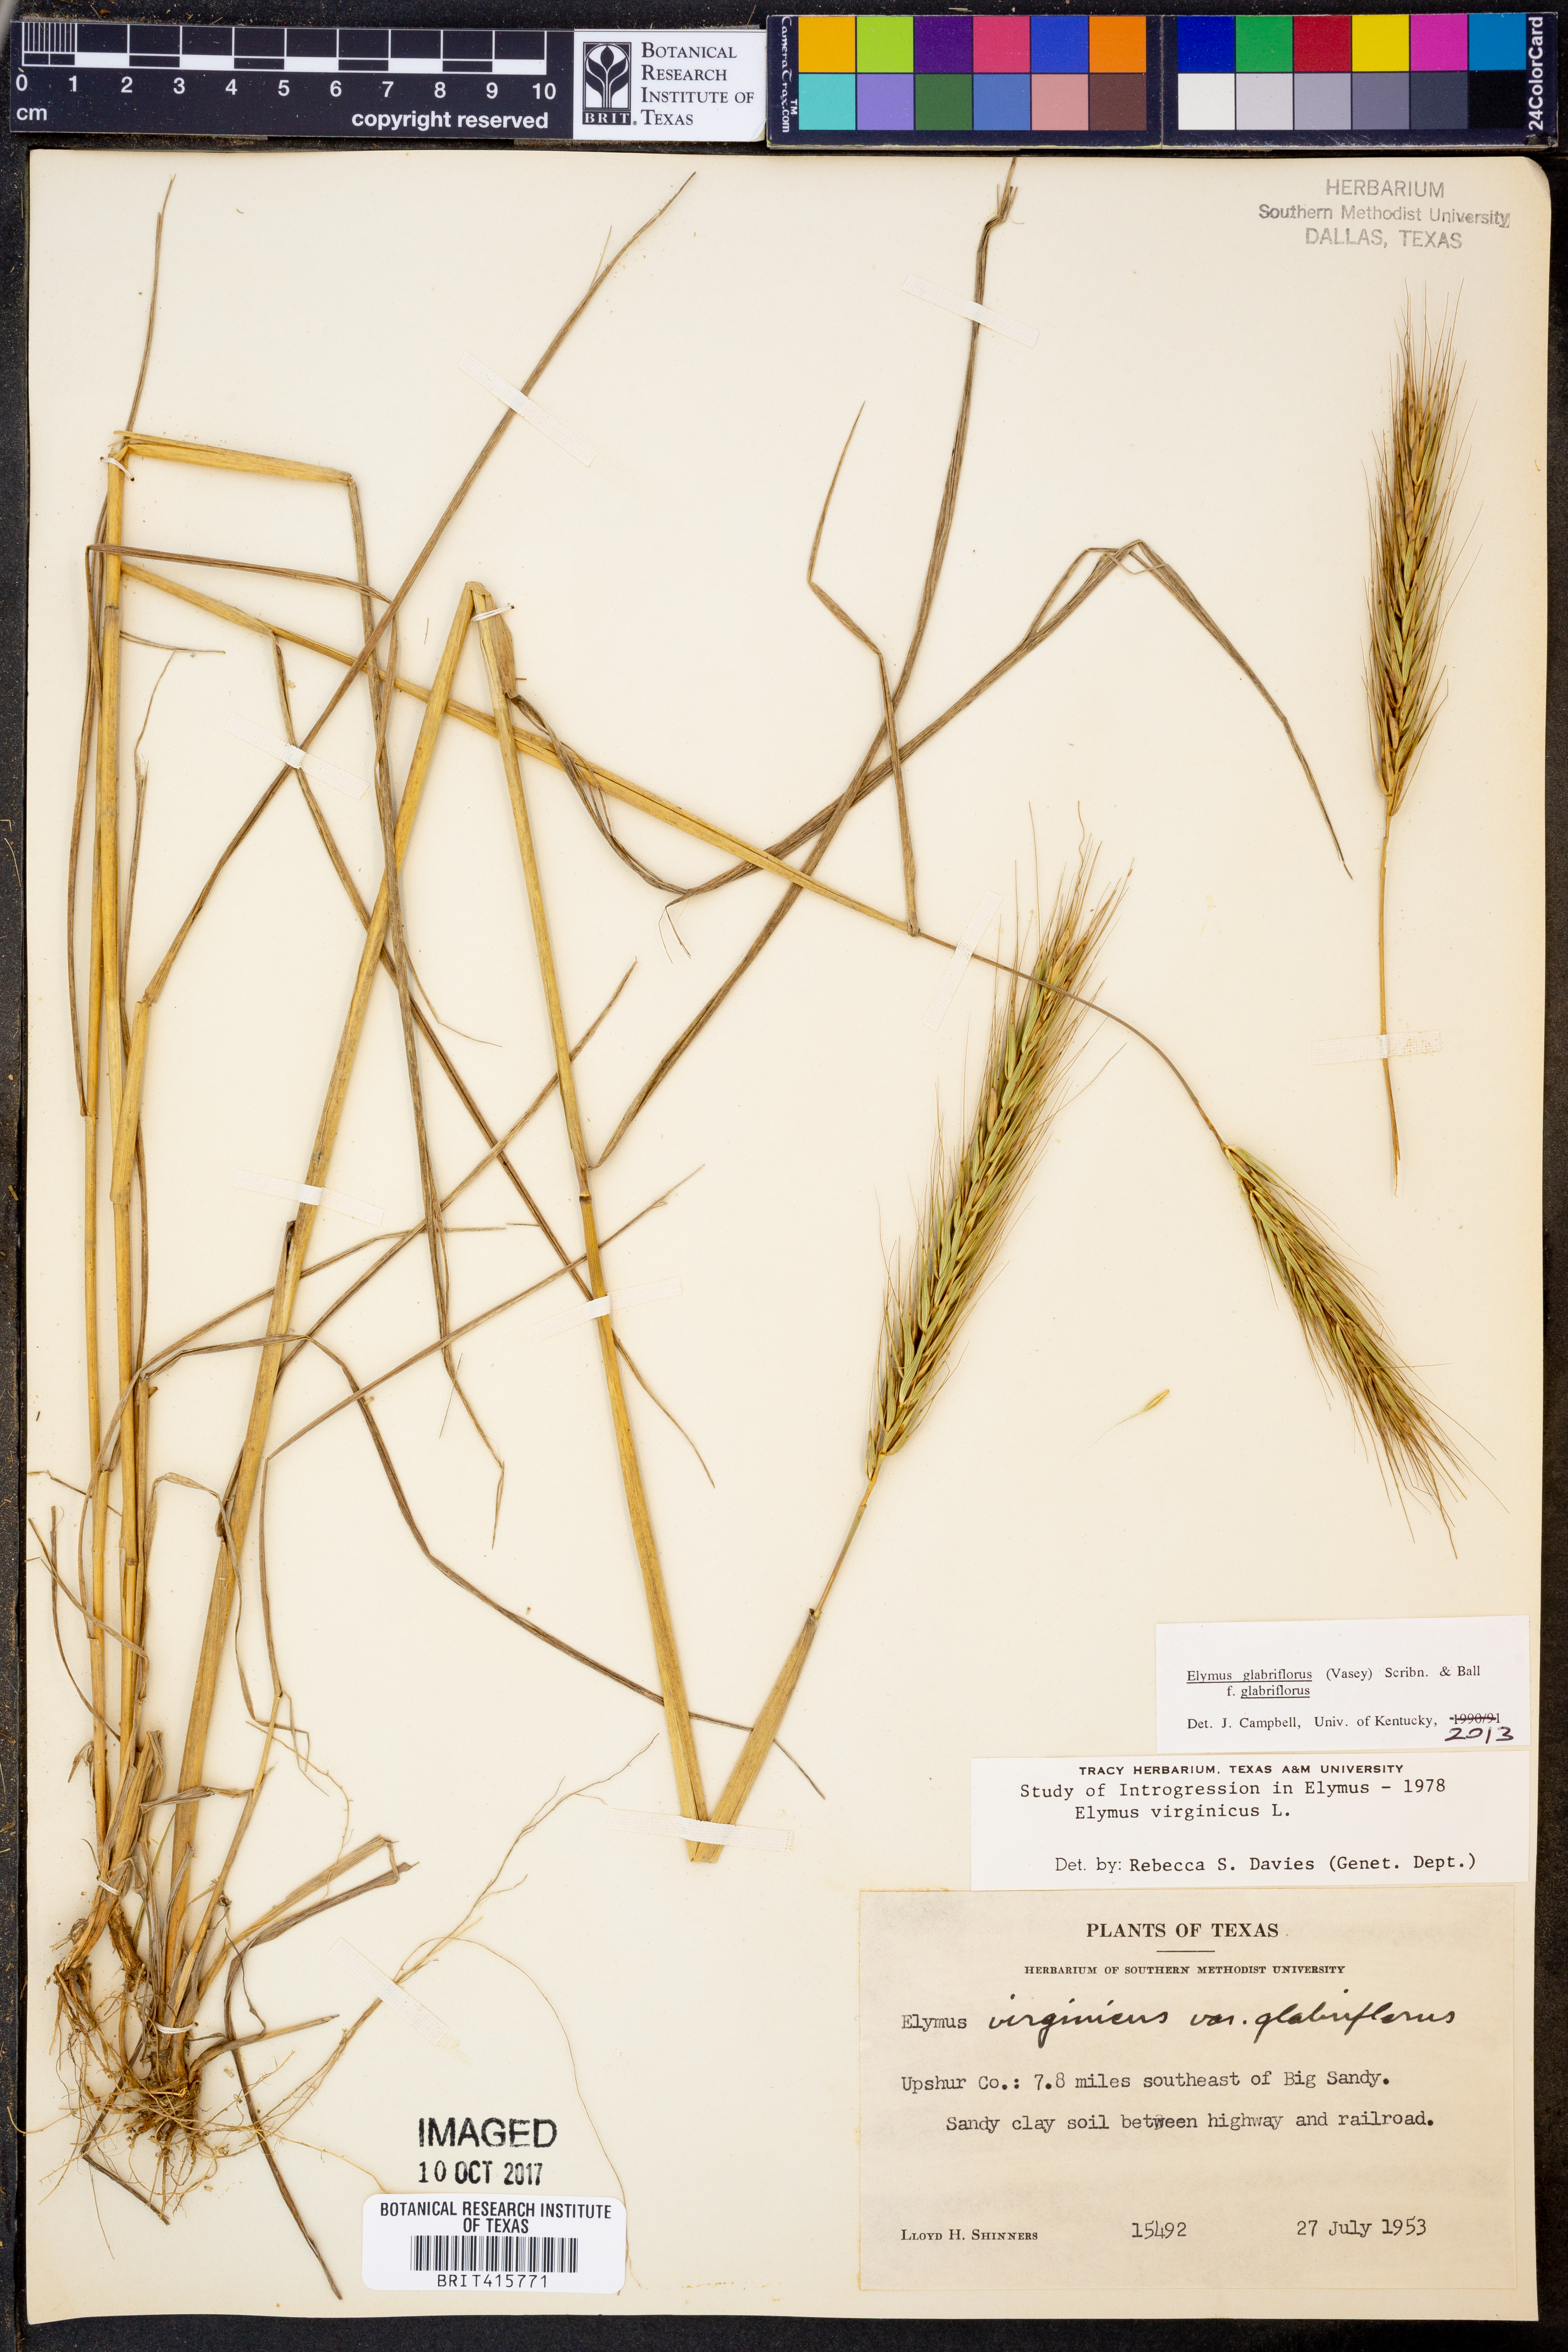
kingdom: Plantae
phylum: Tracheophyta
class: Liliopsida
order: Poales
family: Poaceae
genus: Elymus
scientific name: Elymus virginicus
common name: Common eastern wildrye
